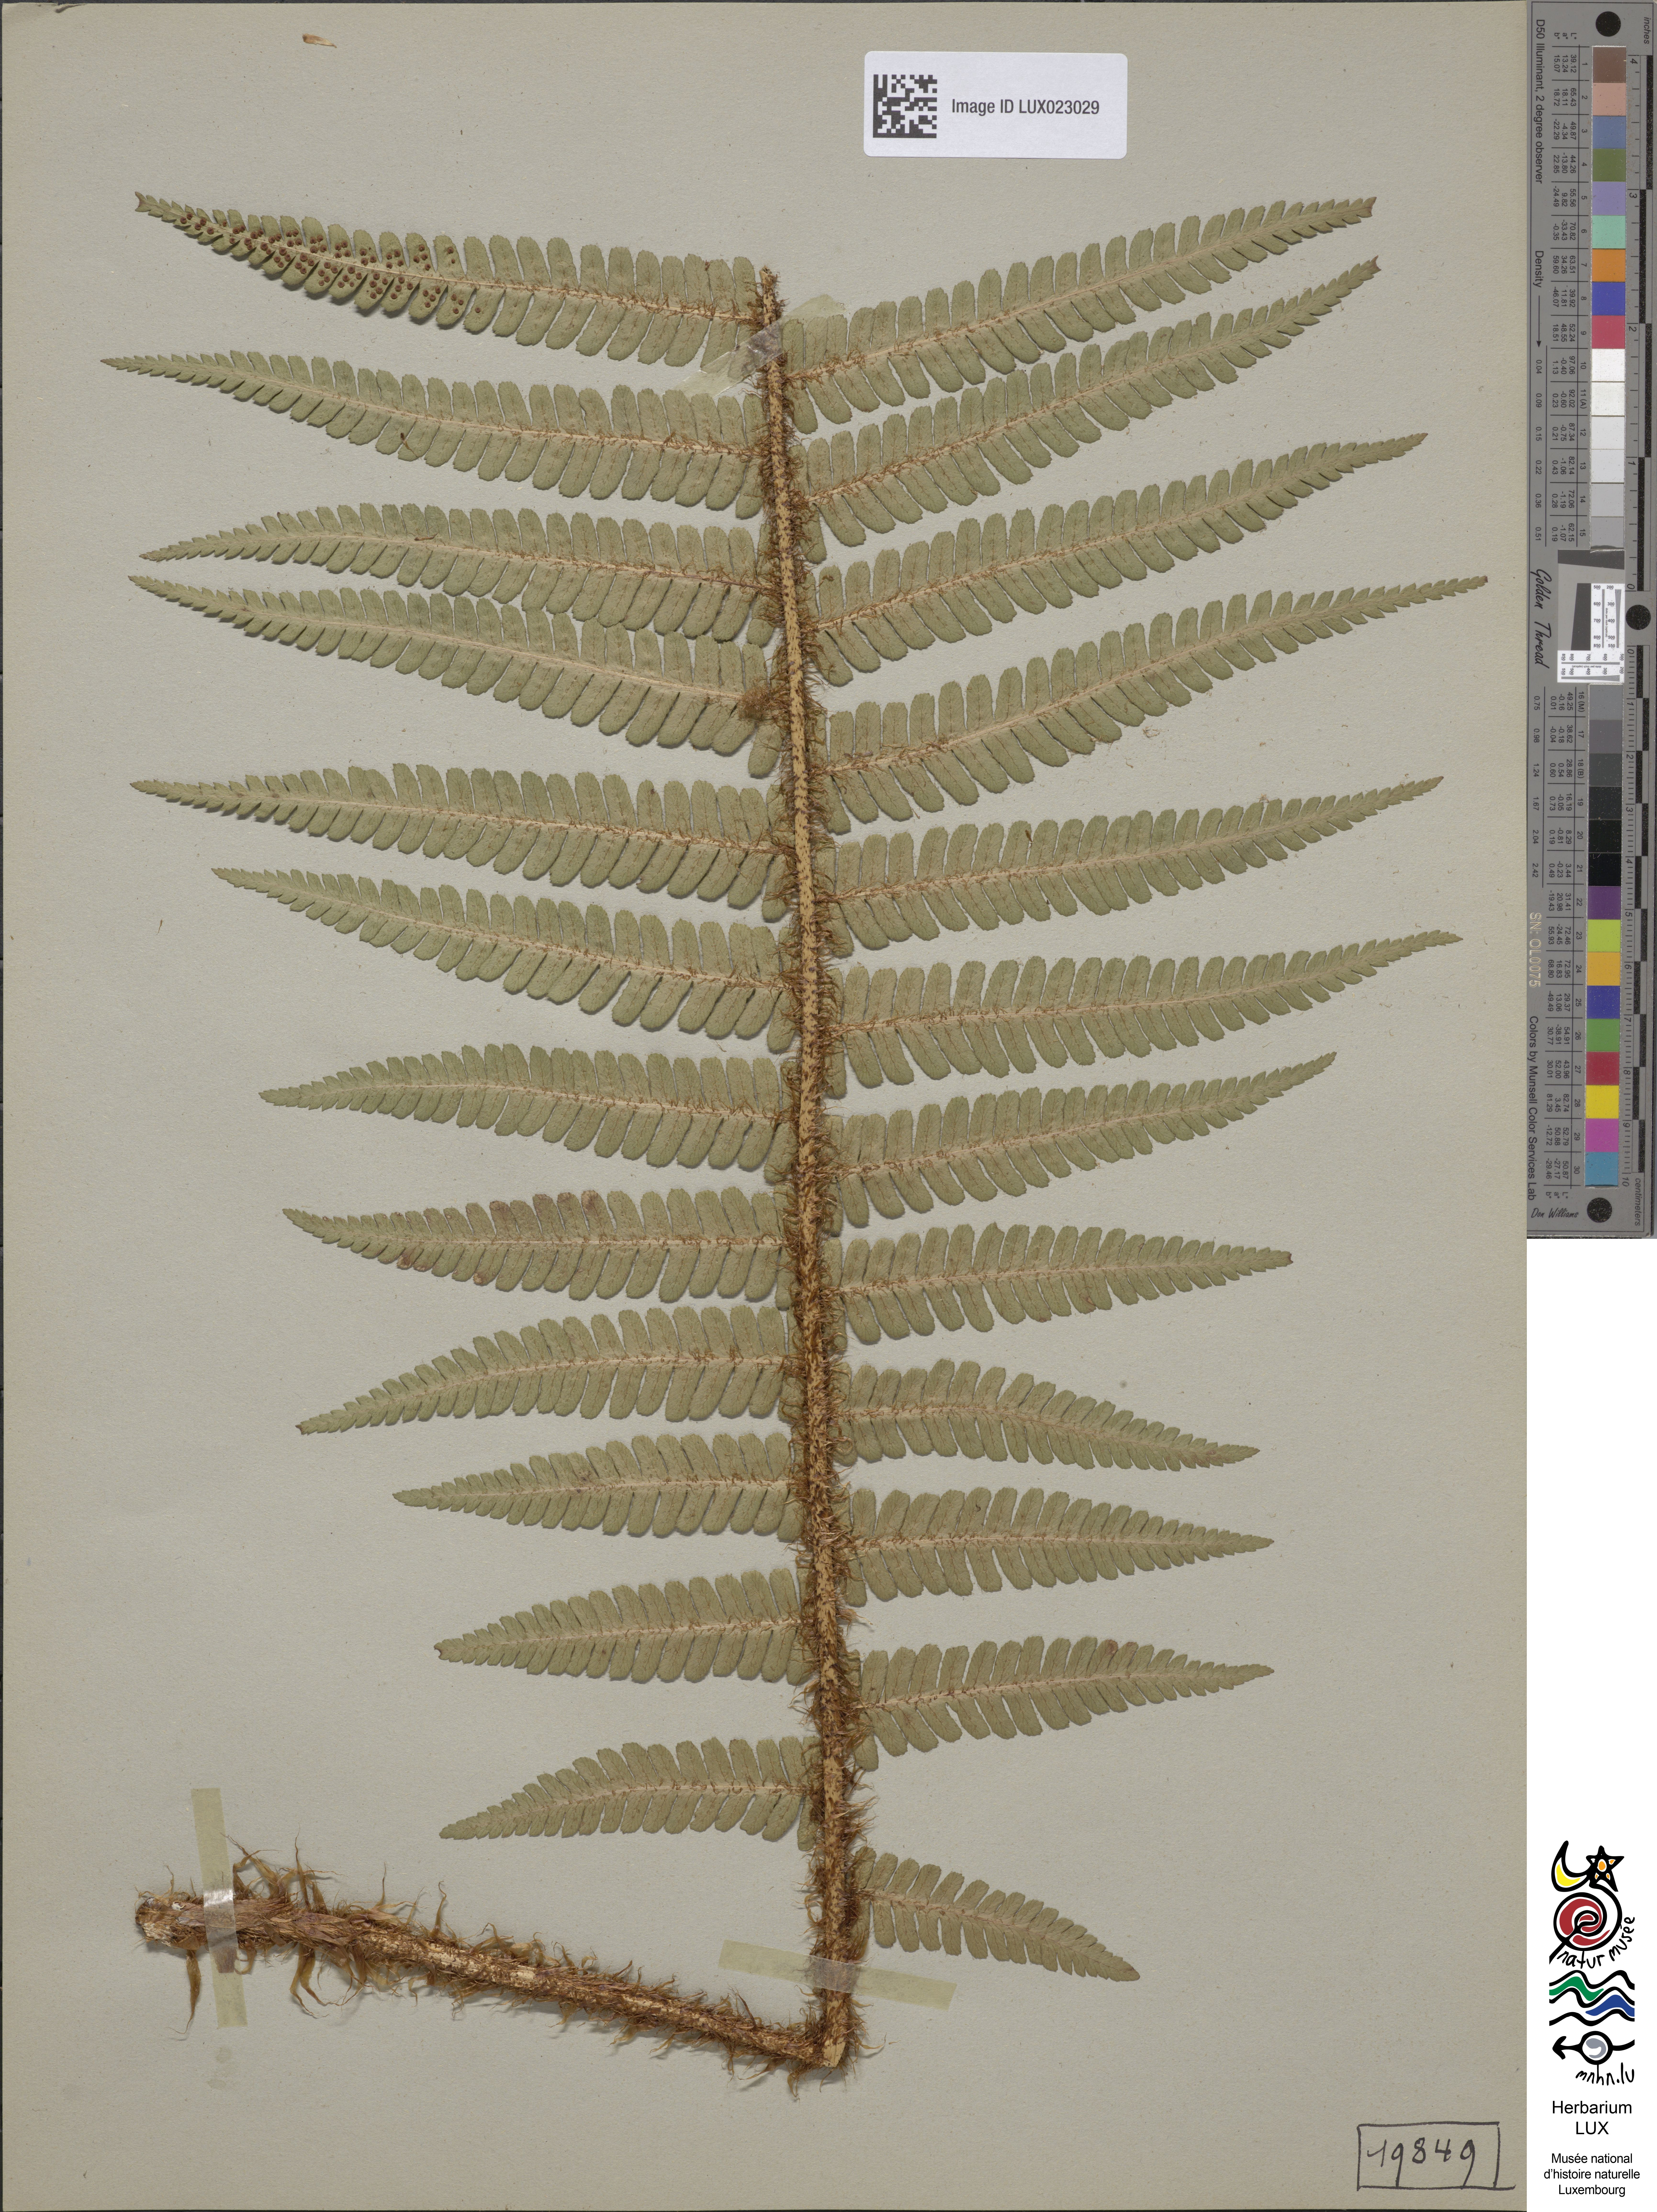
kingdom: Plantae
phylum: Tracheophyta
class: Polypodiopsida
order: Polypodiales
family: Dryopteridaceae
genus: Dryopteris
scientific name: Dryopteris borreri
